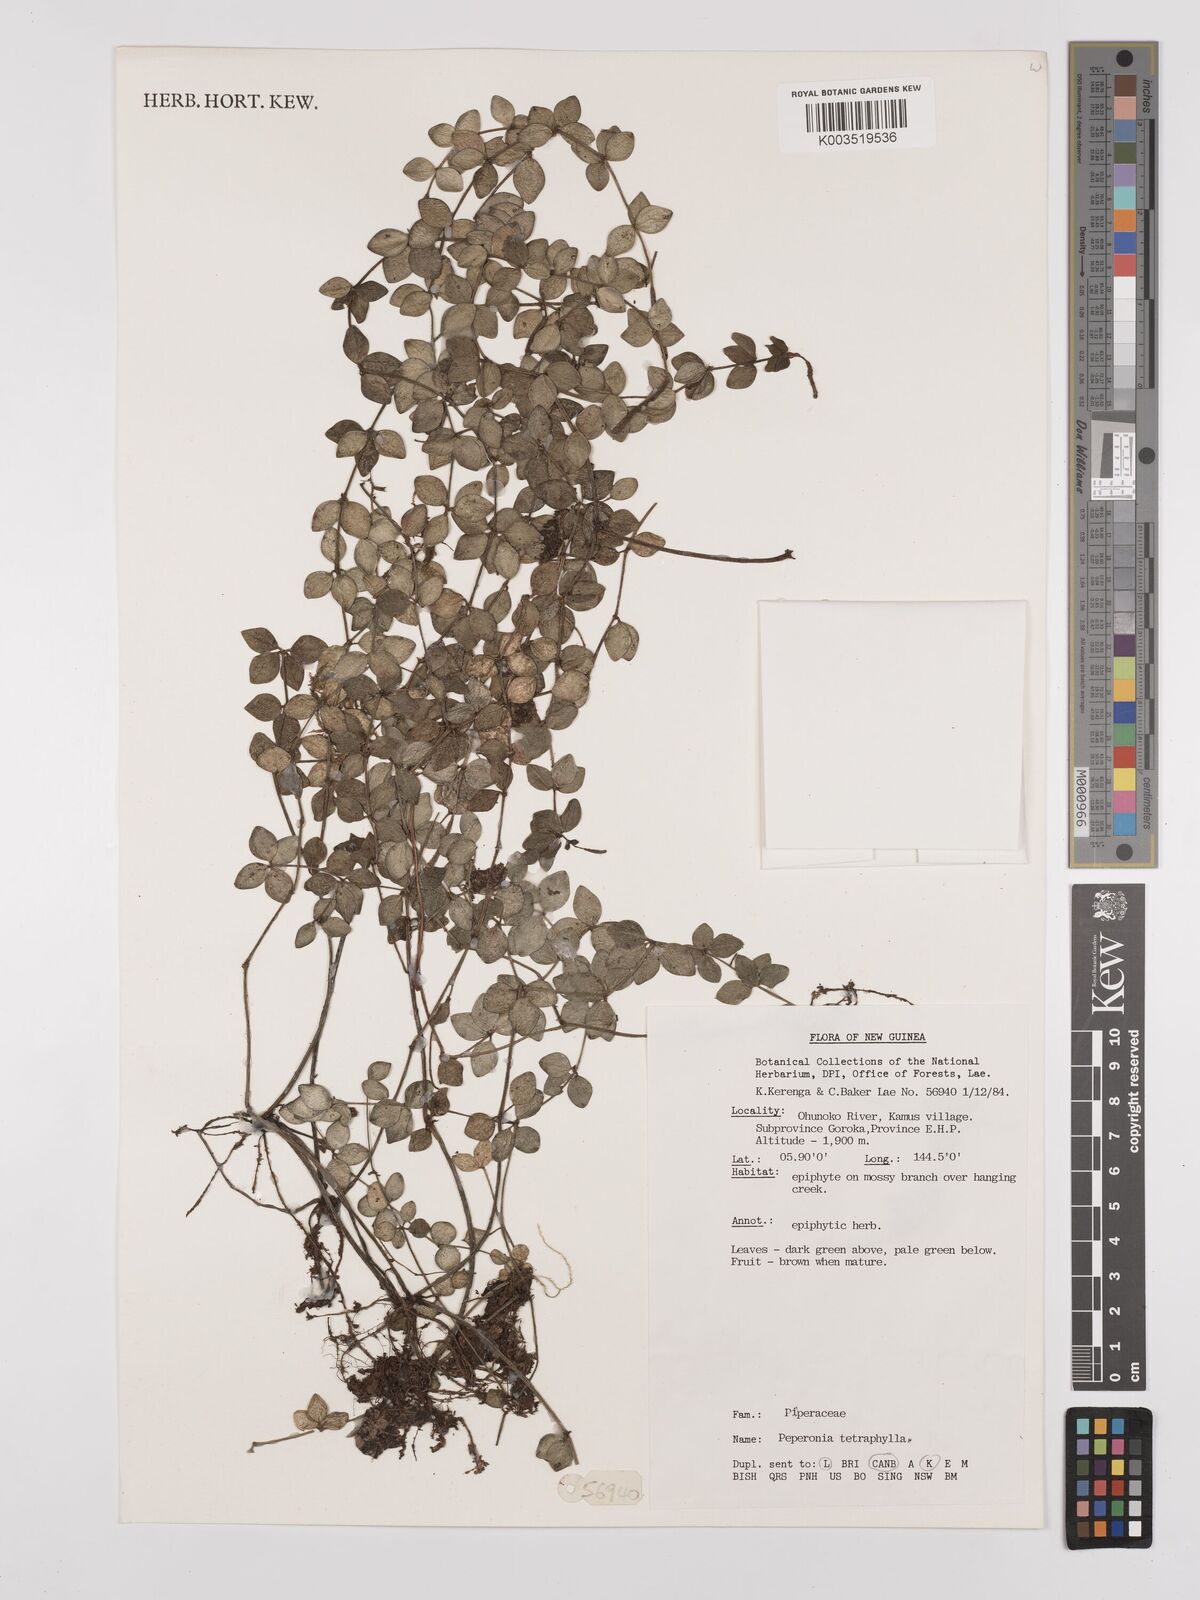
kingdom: Plantae
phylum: Tracheophyta
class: Magnoliopsida
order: Piperales
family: Piperaceae
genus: Peperomia
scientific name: Peperomia tetraphylla
